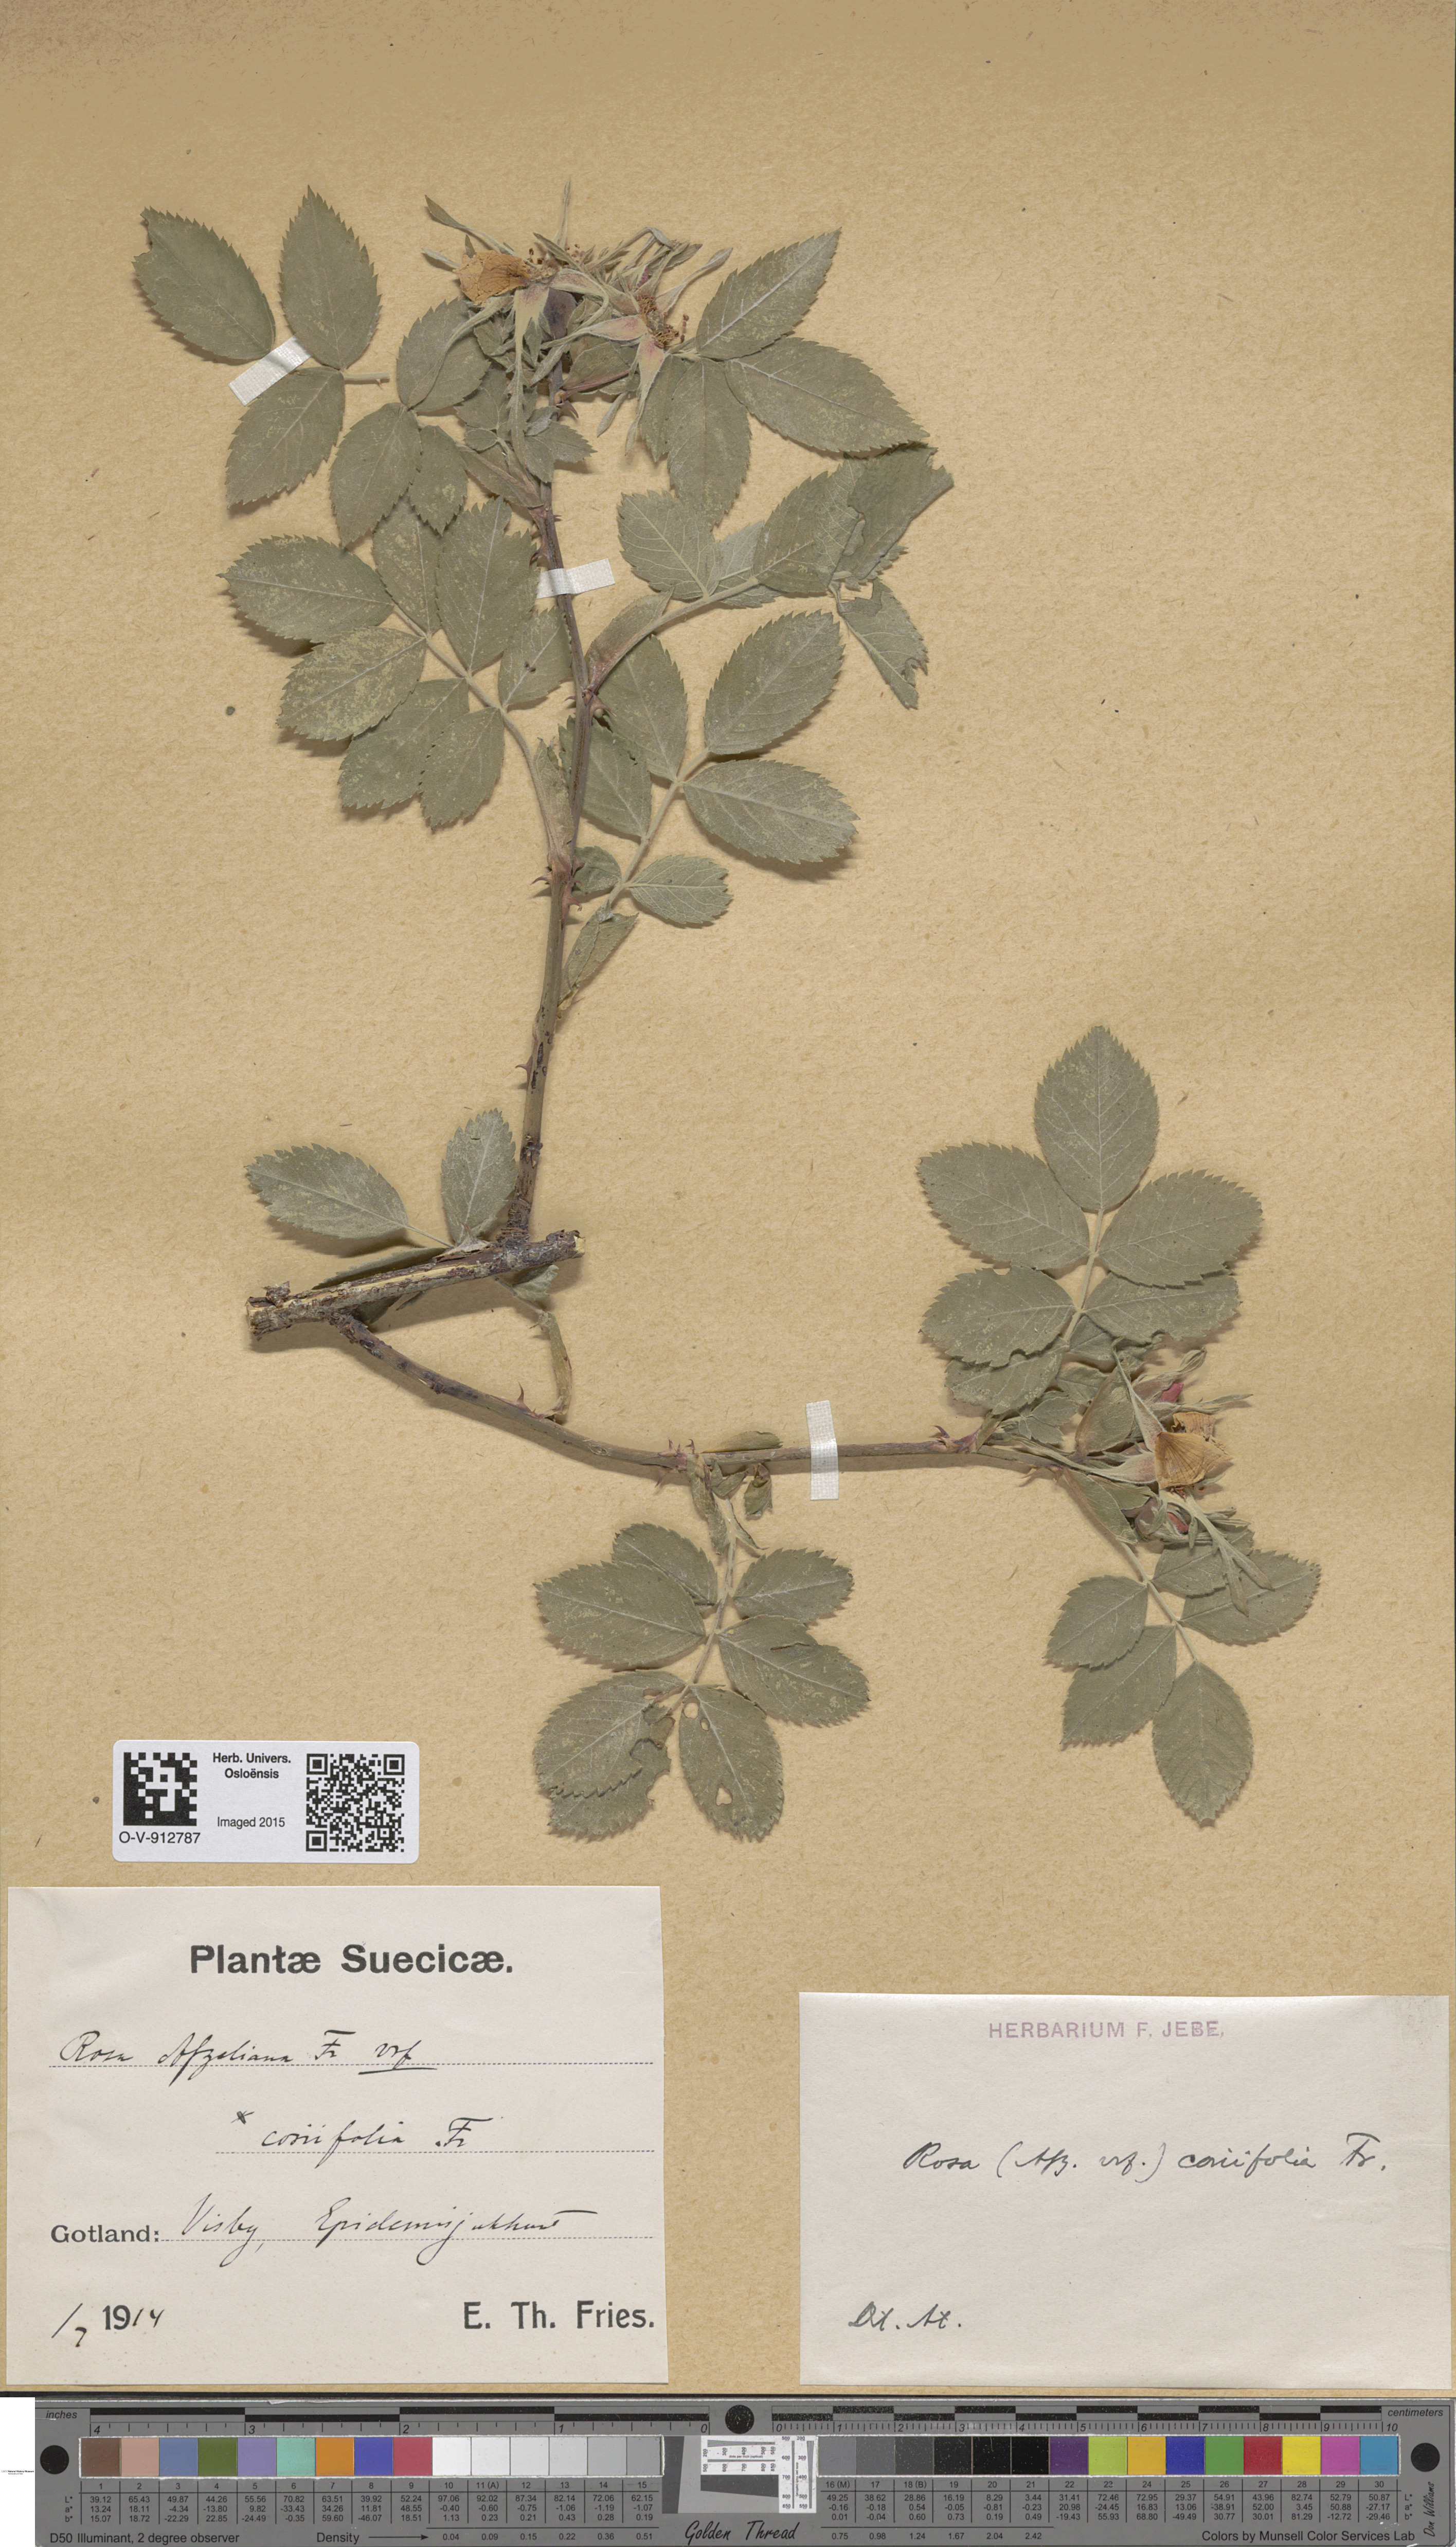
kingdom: Plantae
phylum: Tracheophyta
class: Magnoliopsida
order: Rosales
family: Rosaceae
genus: Rosa
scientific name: Rosa caesia
